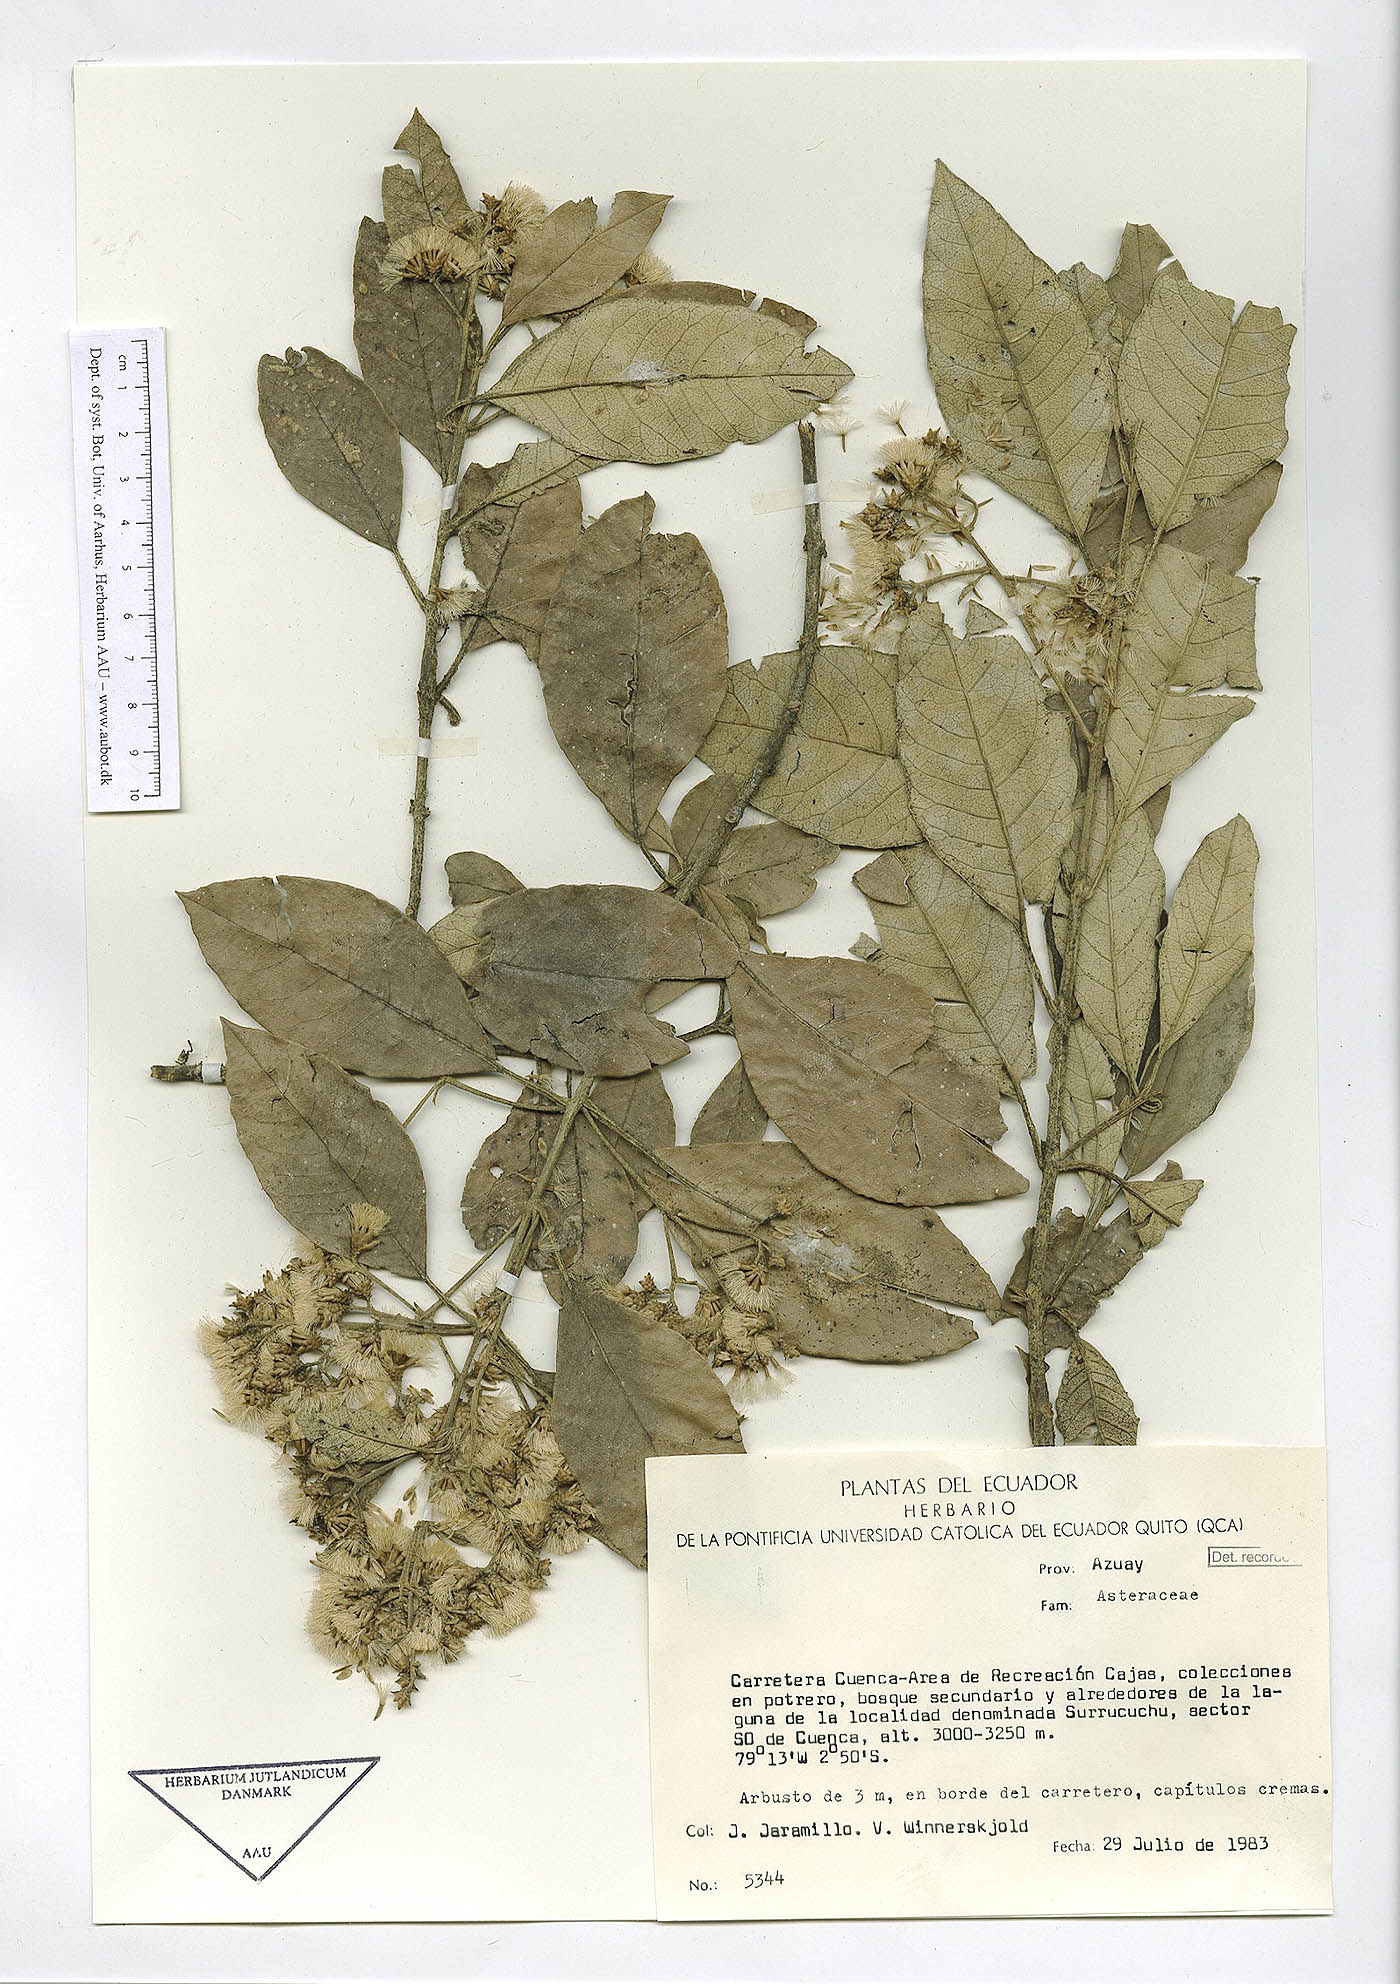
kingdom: Plantae
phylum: Tracheophyta
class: Magnoliopsida
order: Asterales
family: Asteraceae
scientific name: Asteraceae
